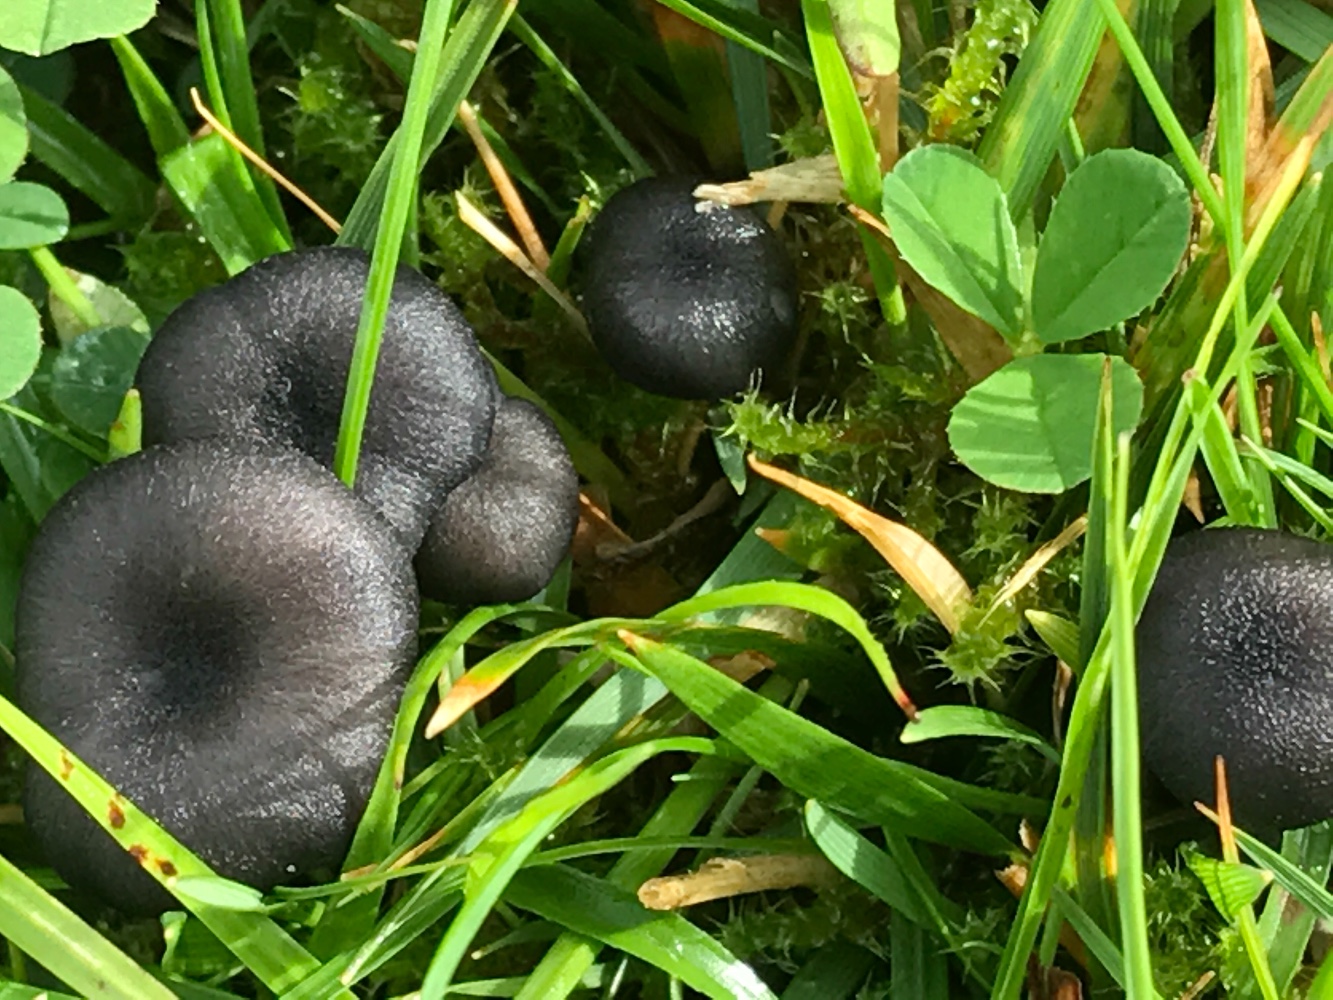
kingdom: Fungi
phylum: Basidiomycota
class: Agaricomycetes
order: Agaricales
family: Entolomataceae
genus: Entoloma
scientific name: Entoloma
